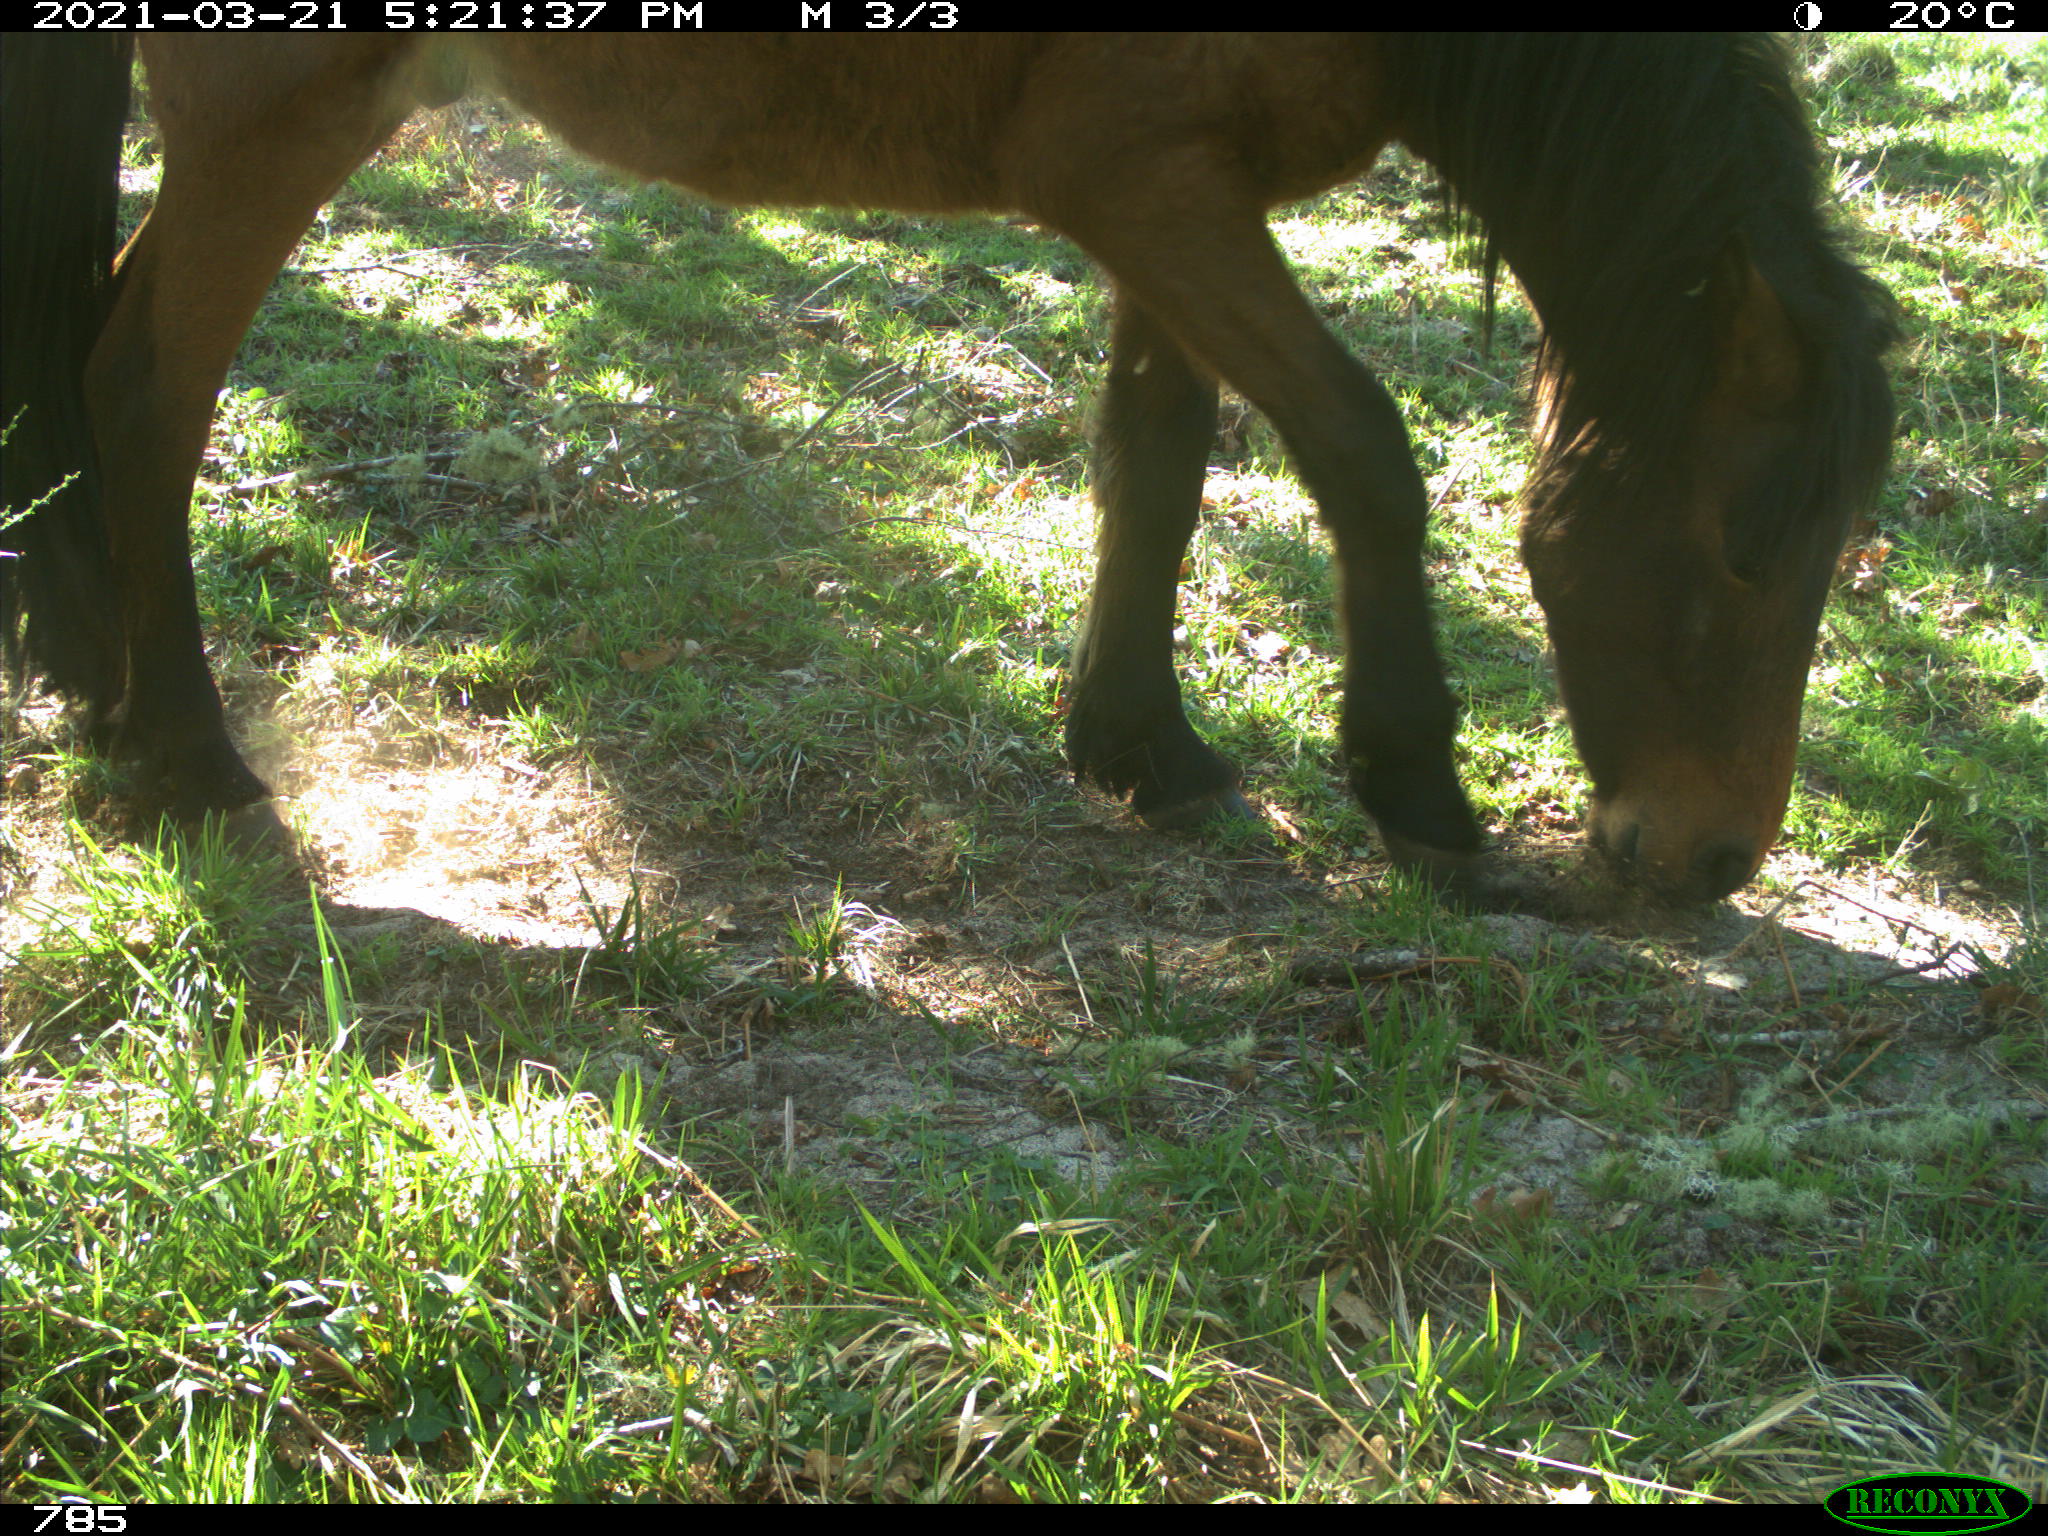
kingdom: Animalia
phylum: Chordata
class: Mammalia
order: Perissodactyla
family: Equidae
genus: Equus
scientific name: Equus caballus
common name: Horse
